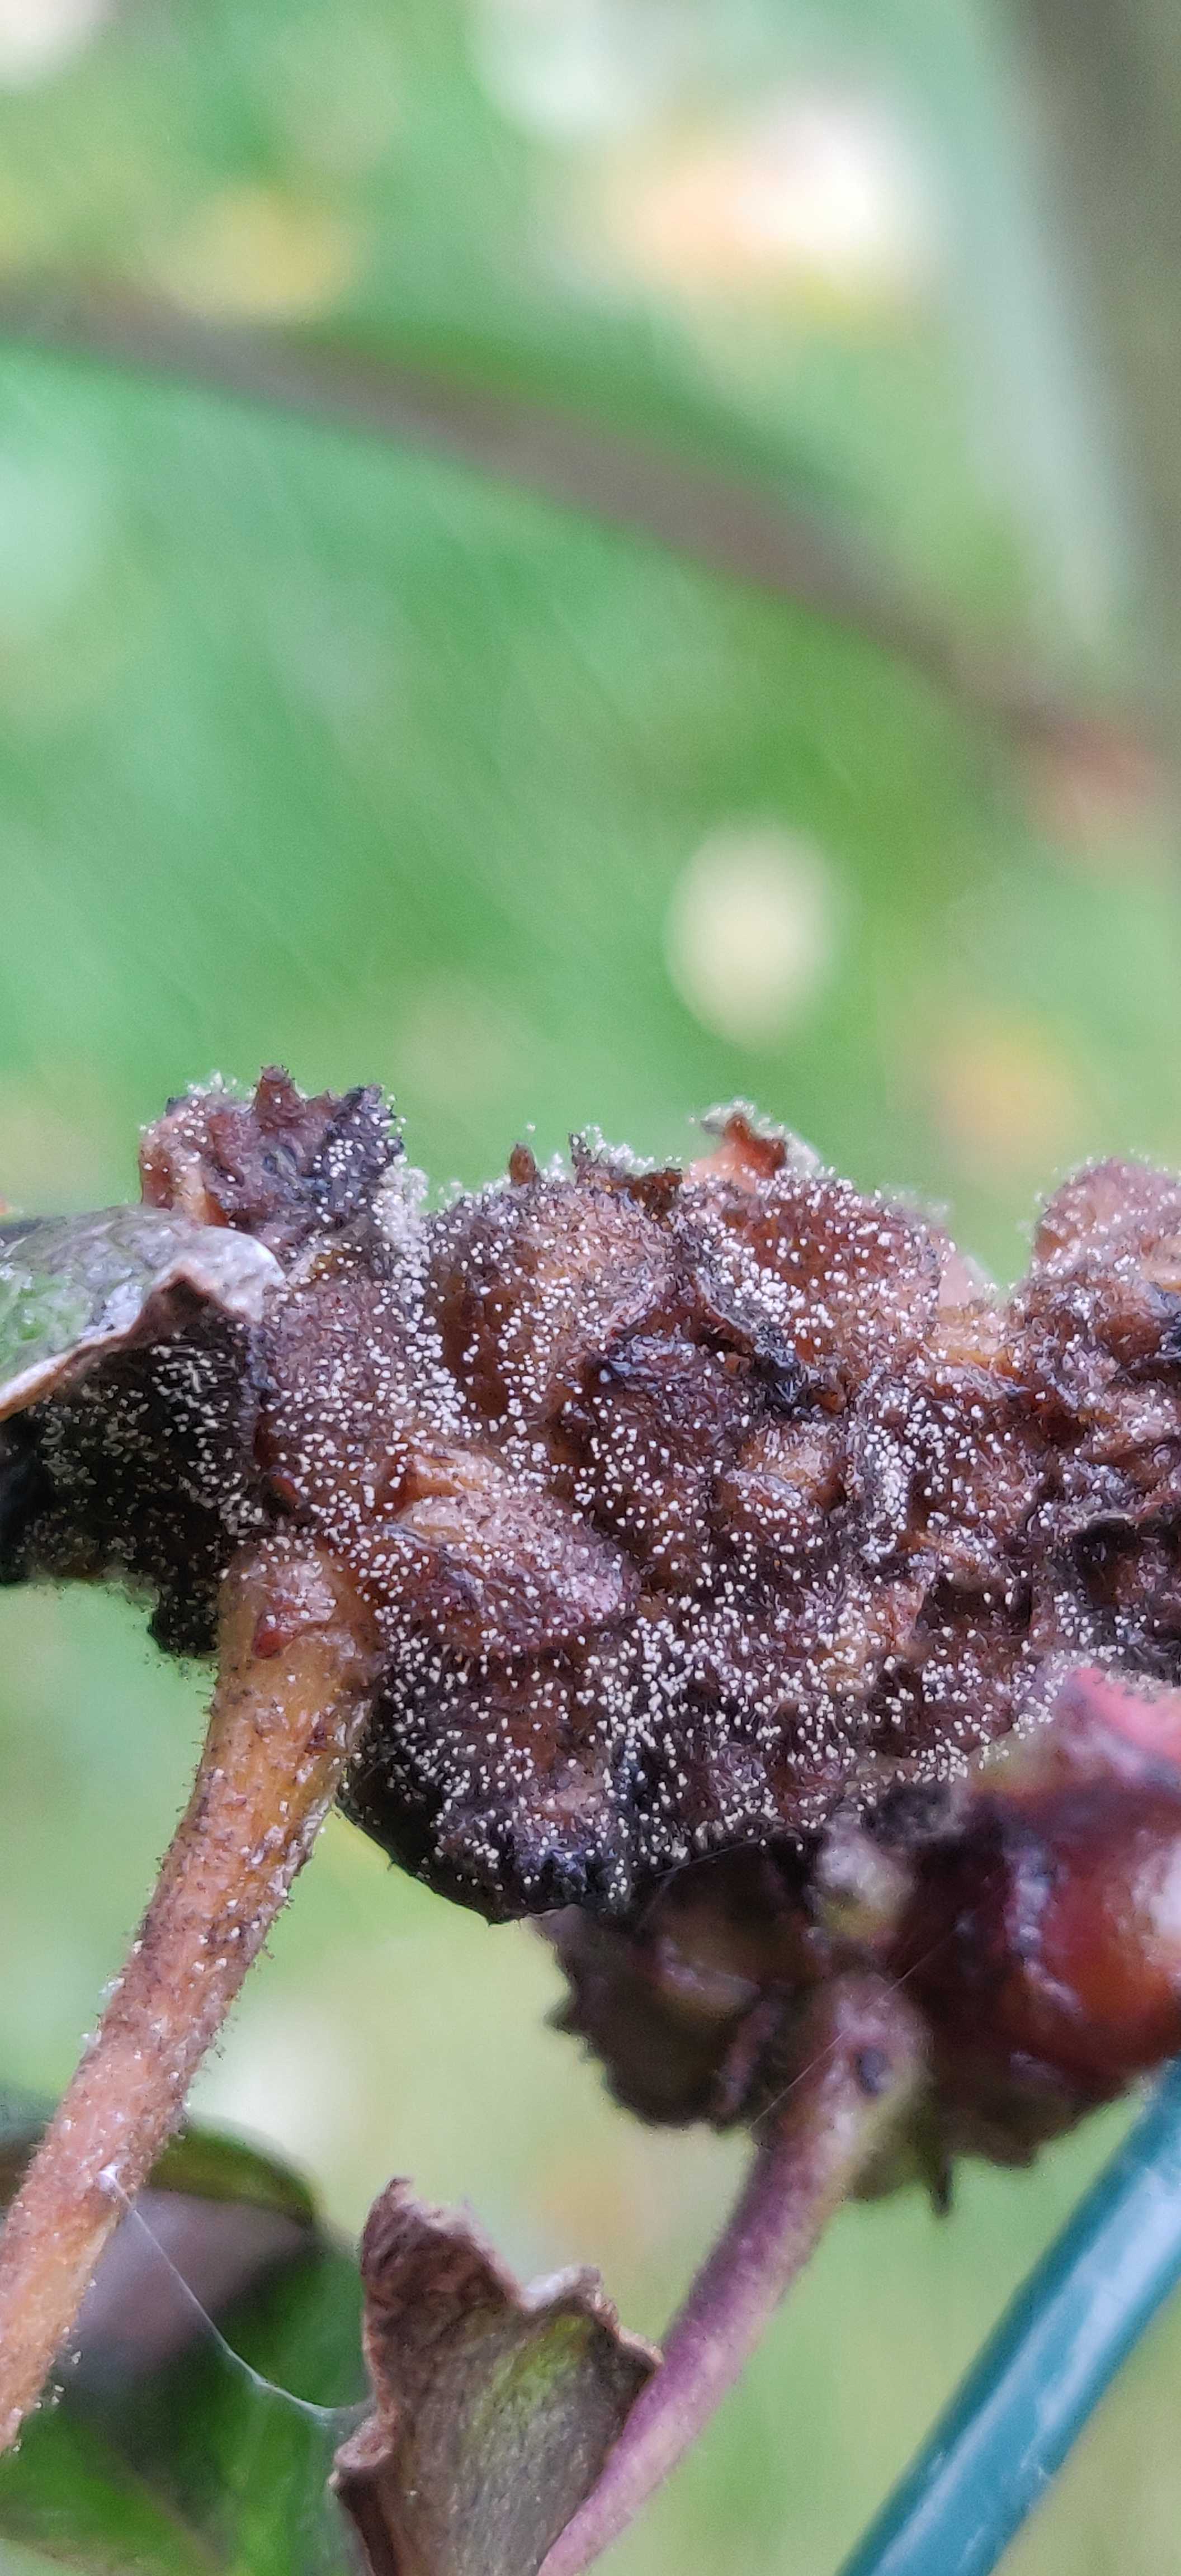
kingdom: Fungi
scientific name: Fungi
